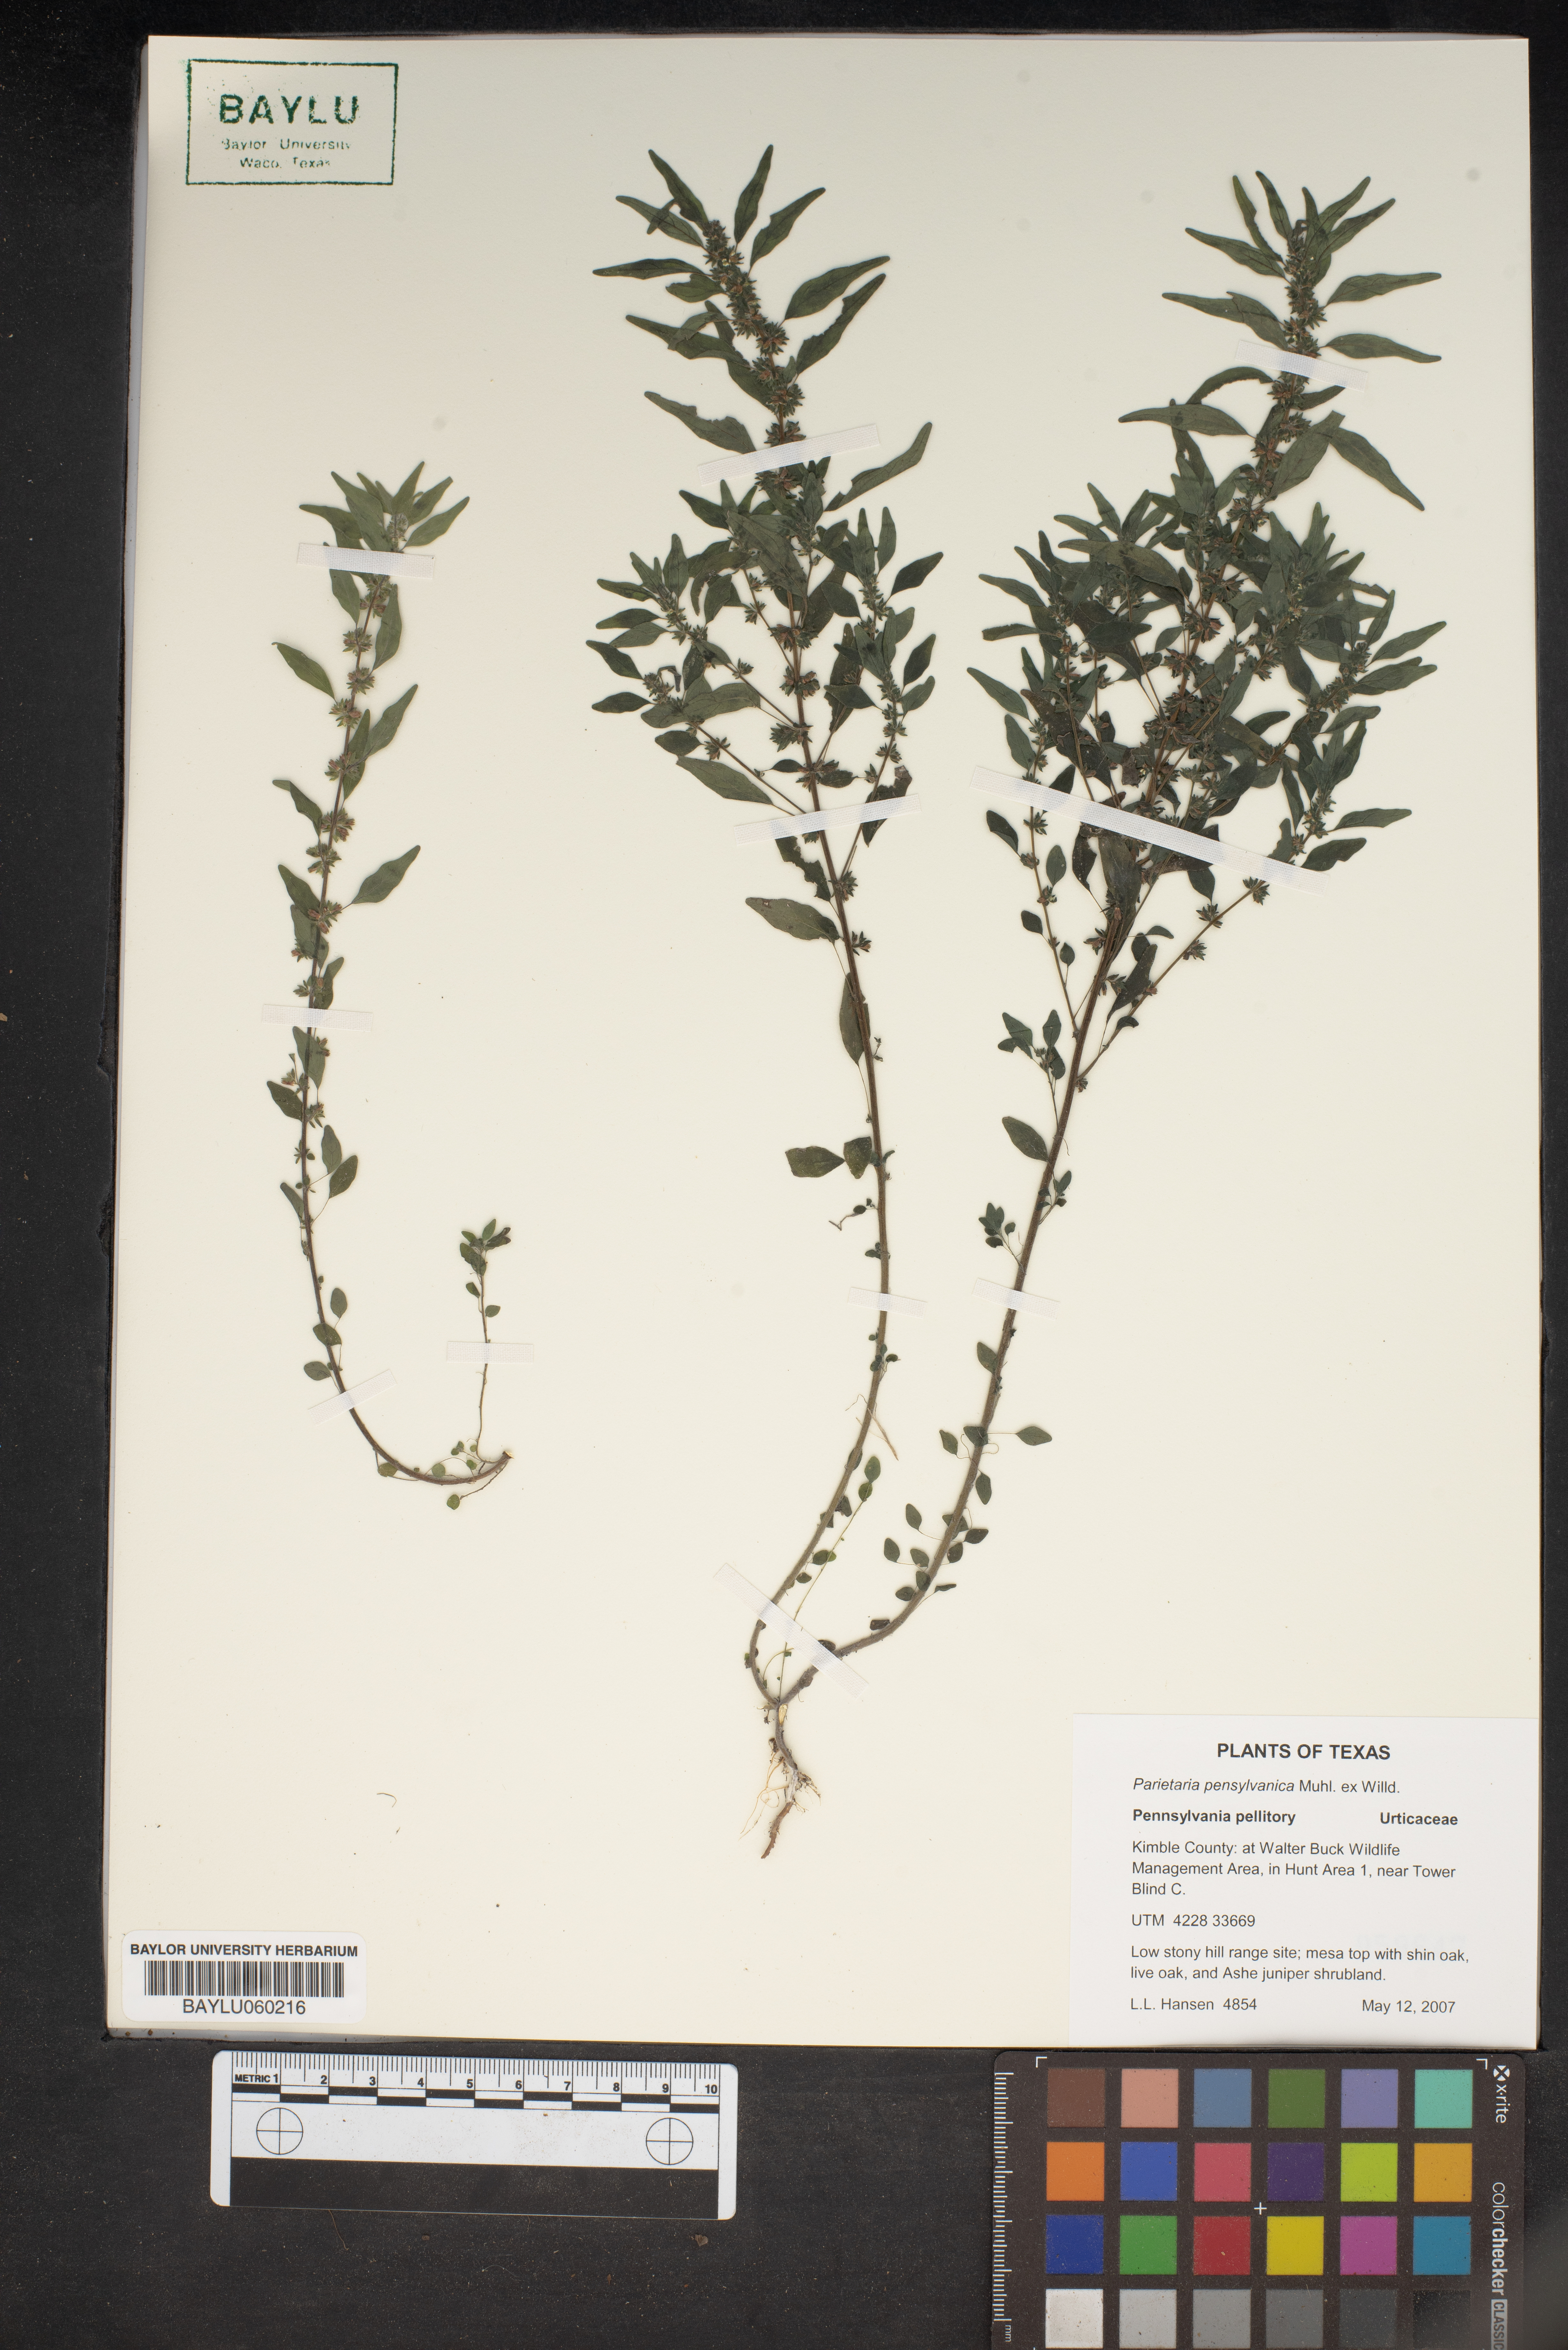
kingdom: Plantae
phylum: Tracheophyta
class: Magnoliopsida
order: Rosales
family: Urticaceae
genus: Parietaria
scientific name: Parietaria pensylvanica
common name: Pennsylvania pellitory
